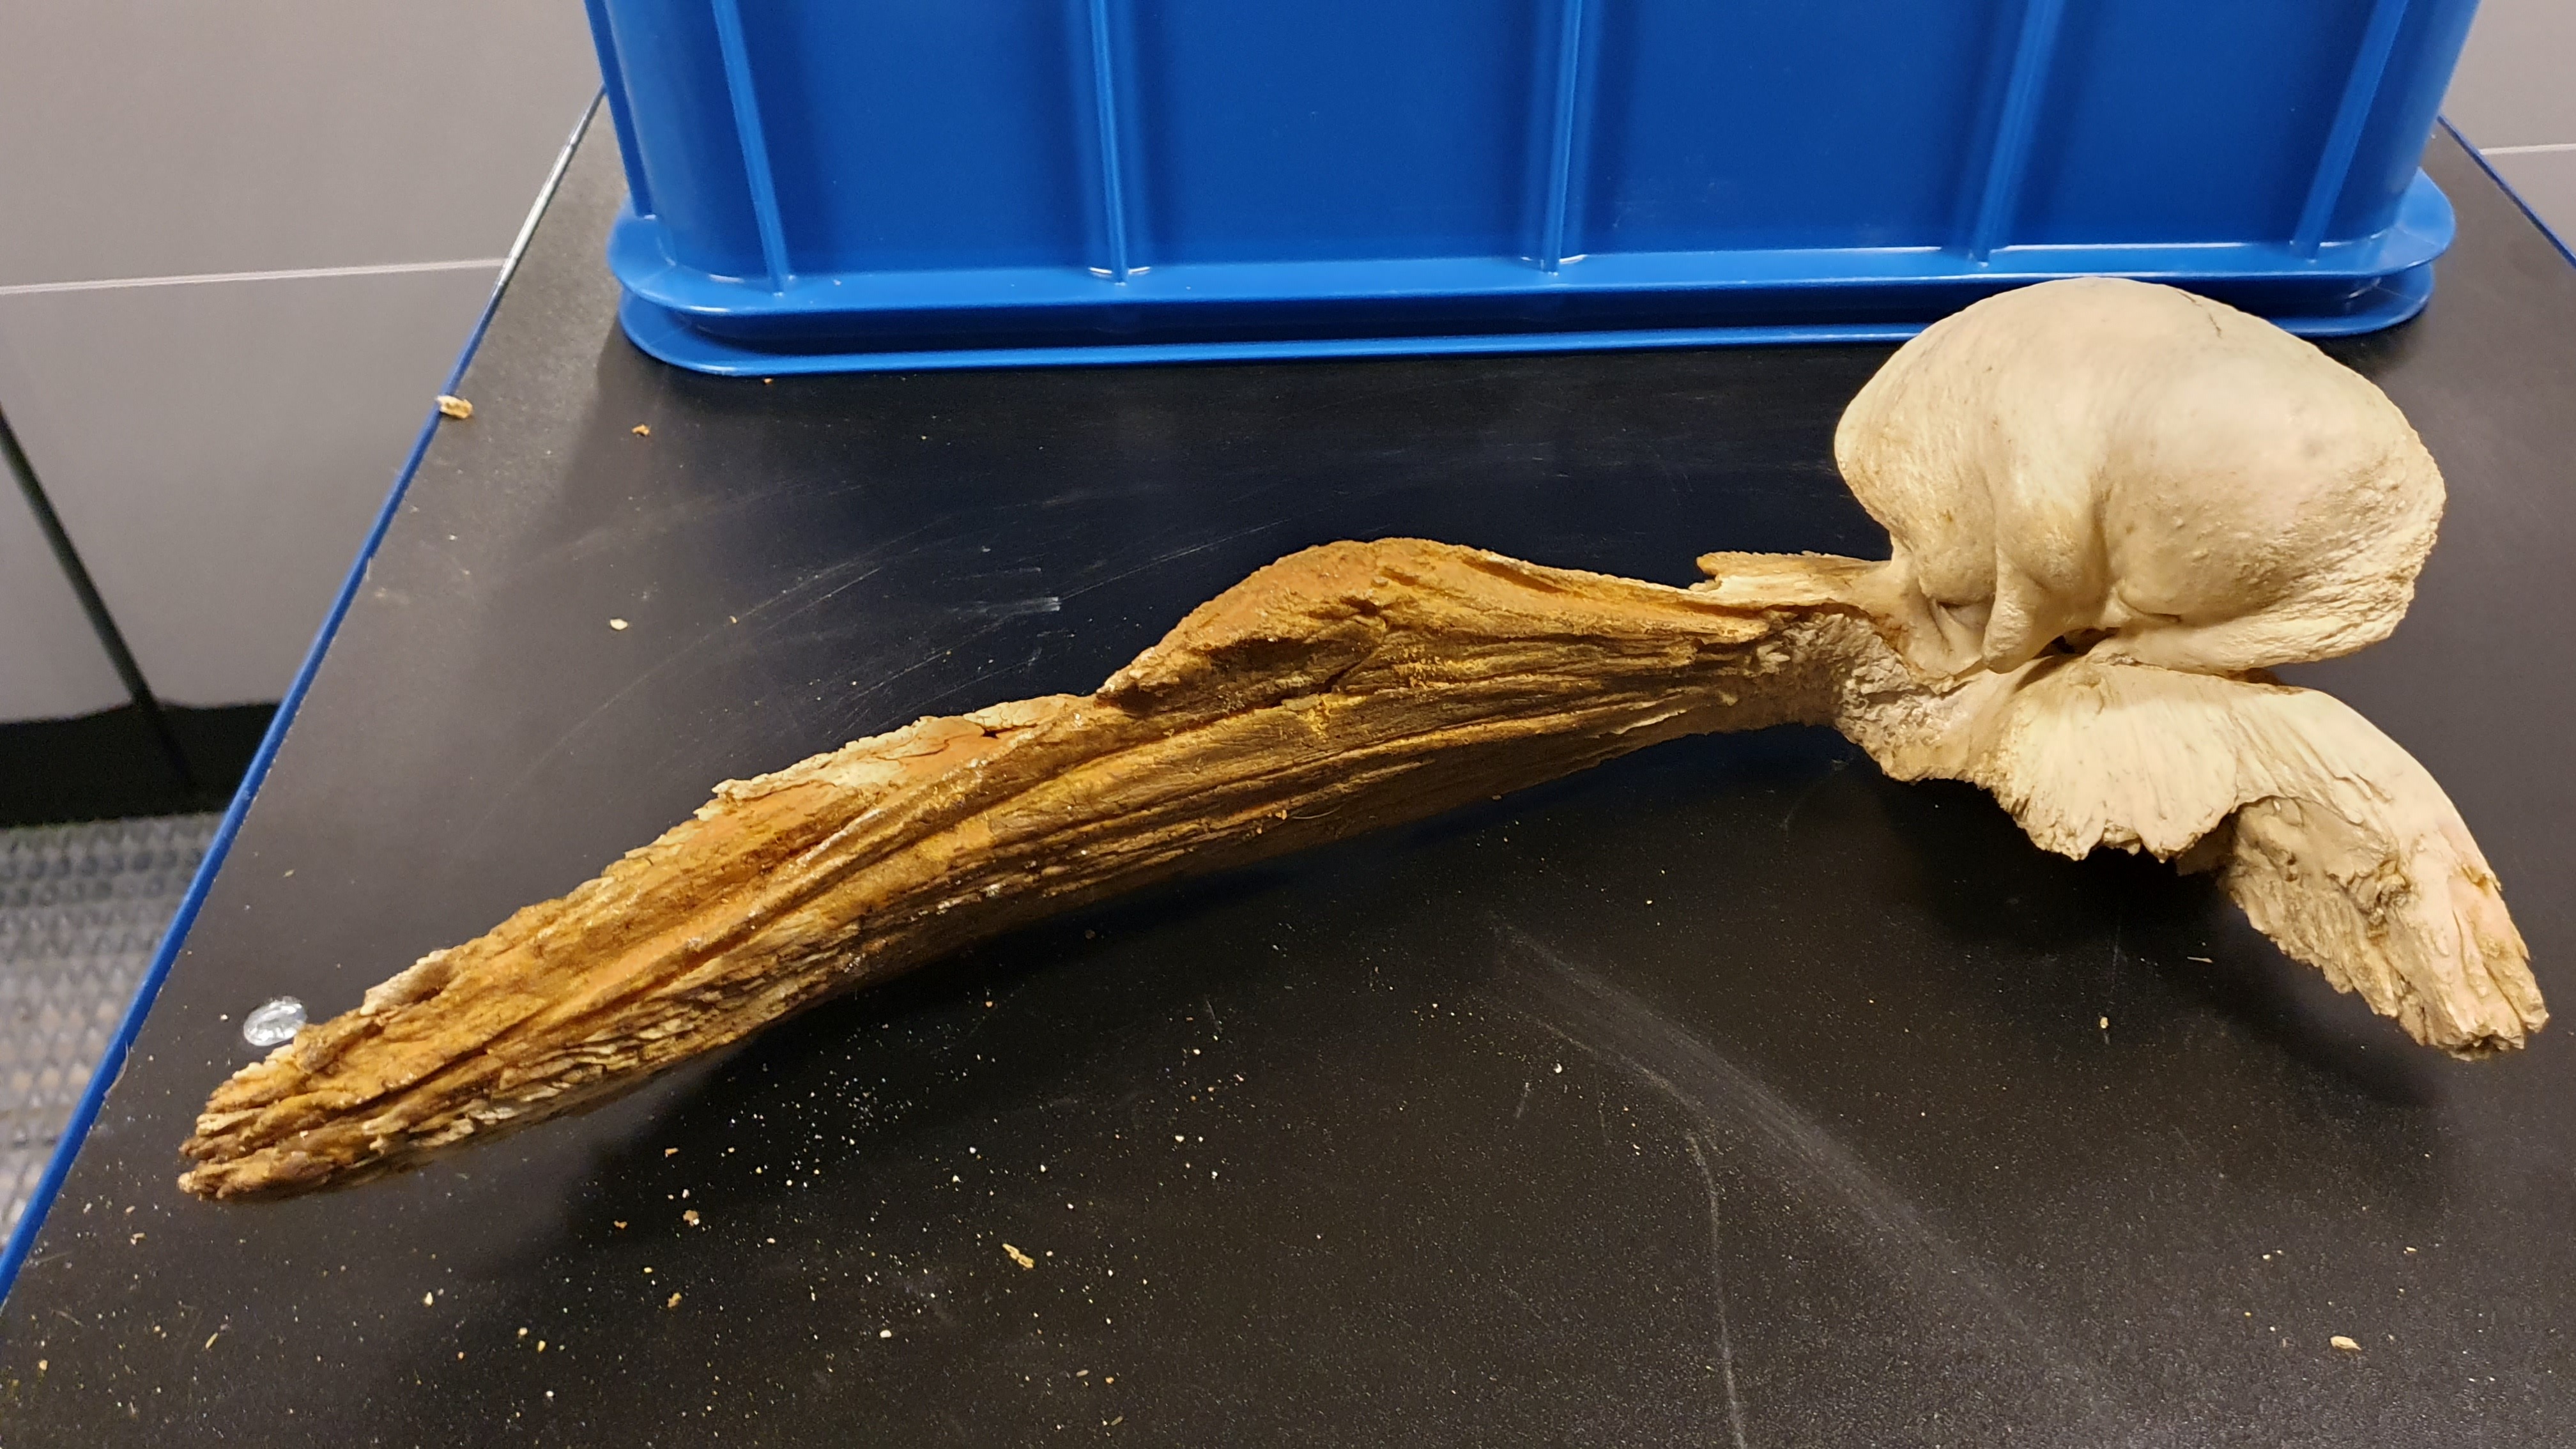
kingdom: Animalia
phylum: Chordata
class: Mammalia
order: Cetacea
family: Balaenopteridae
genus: Balaenoptera
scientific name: Balaenoptera physalus
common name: Fin whale
